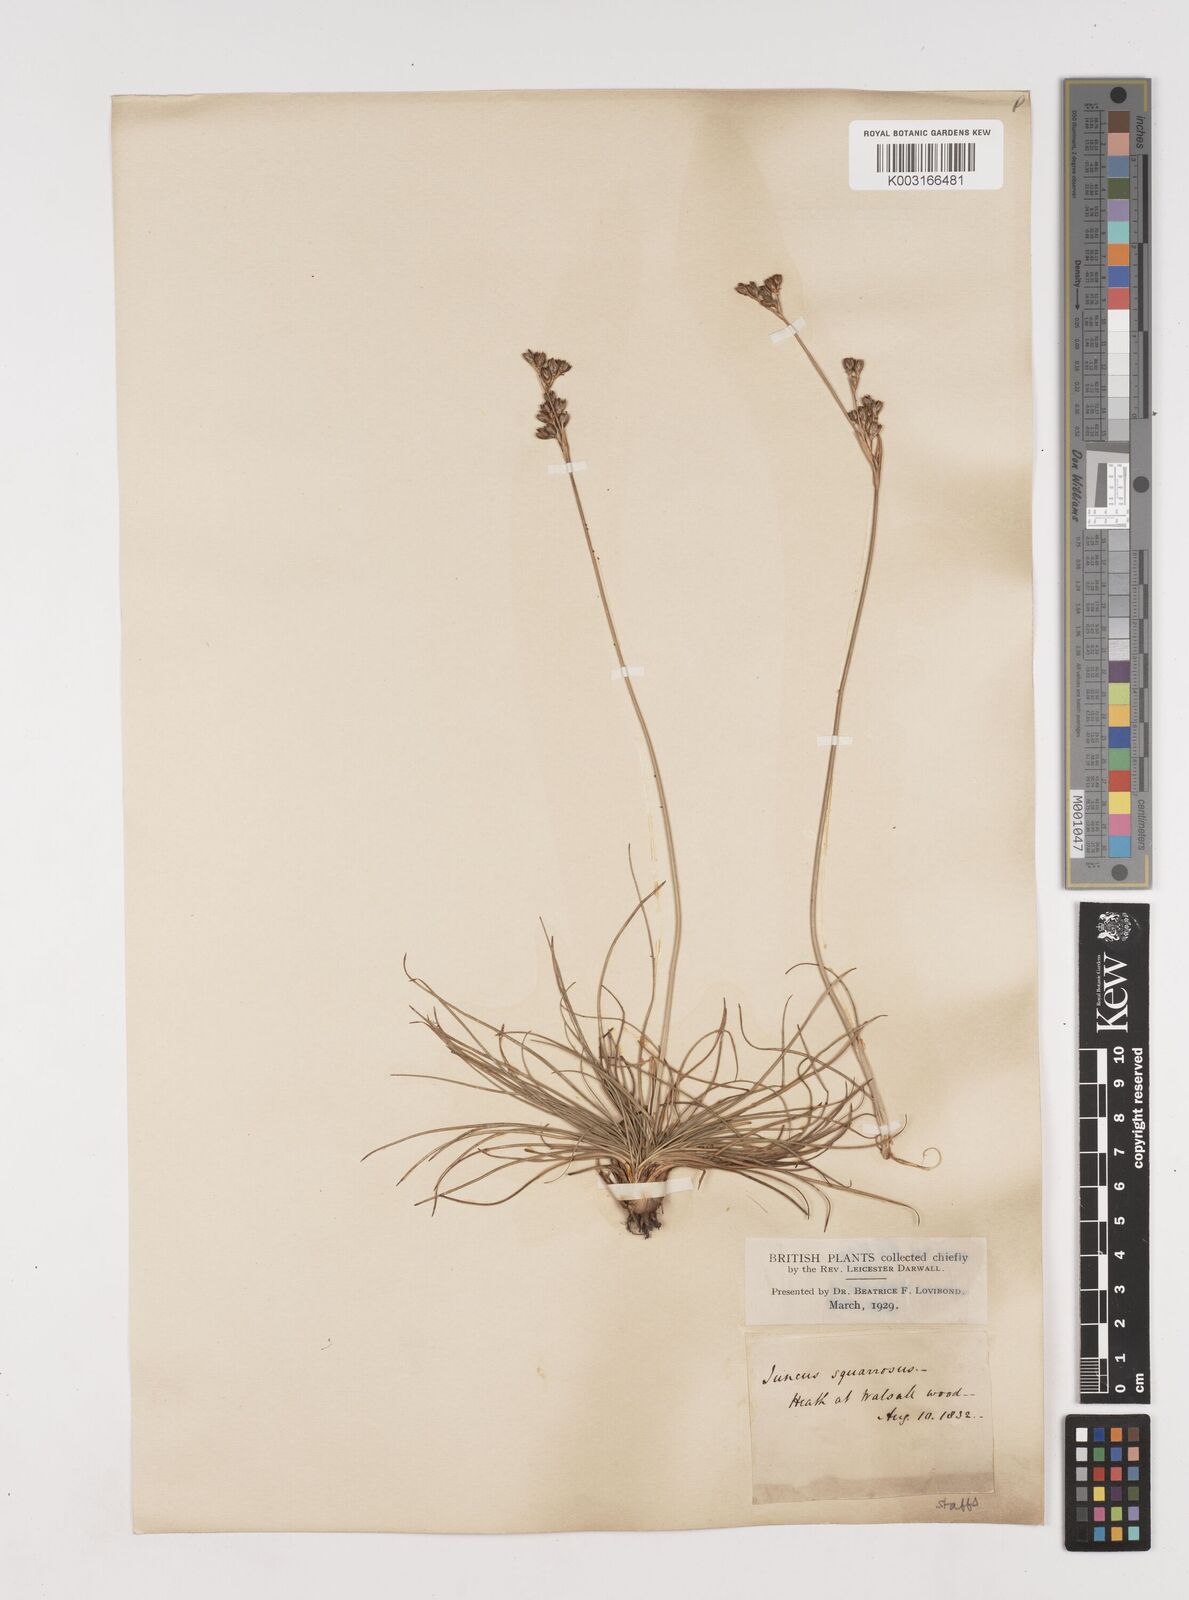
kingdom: Plantae
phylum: Tracheophyta
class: Liliopsida
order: Poales
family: Juncaceae
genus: Juncus
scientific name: Juncus squarrosus
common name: Heath rush
